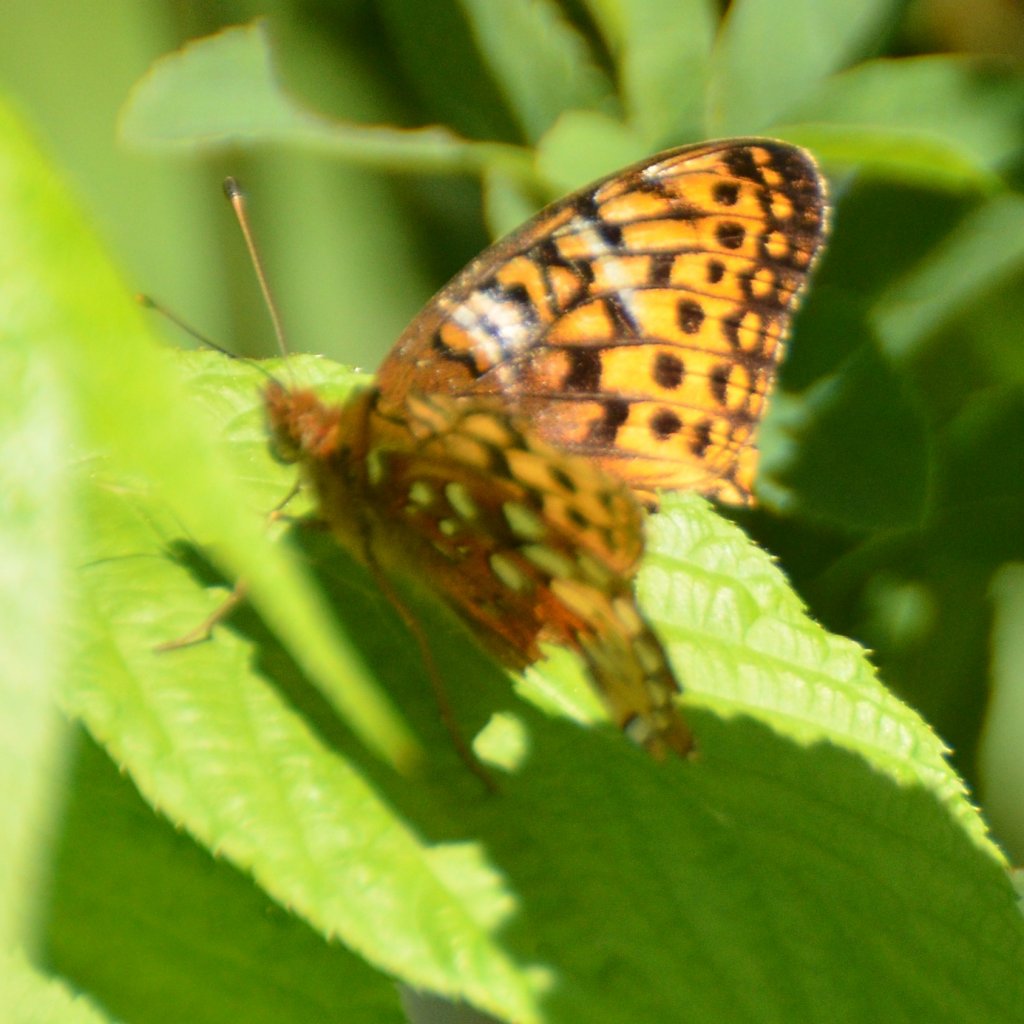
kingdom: Animalia
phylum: Arthropoda
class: Insecta
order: Lepidoptera
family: Nymphalidae
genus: Speyeria
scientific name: Speyeria cybele
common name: Great Spangled Fritillary
